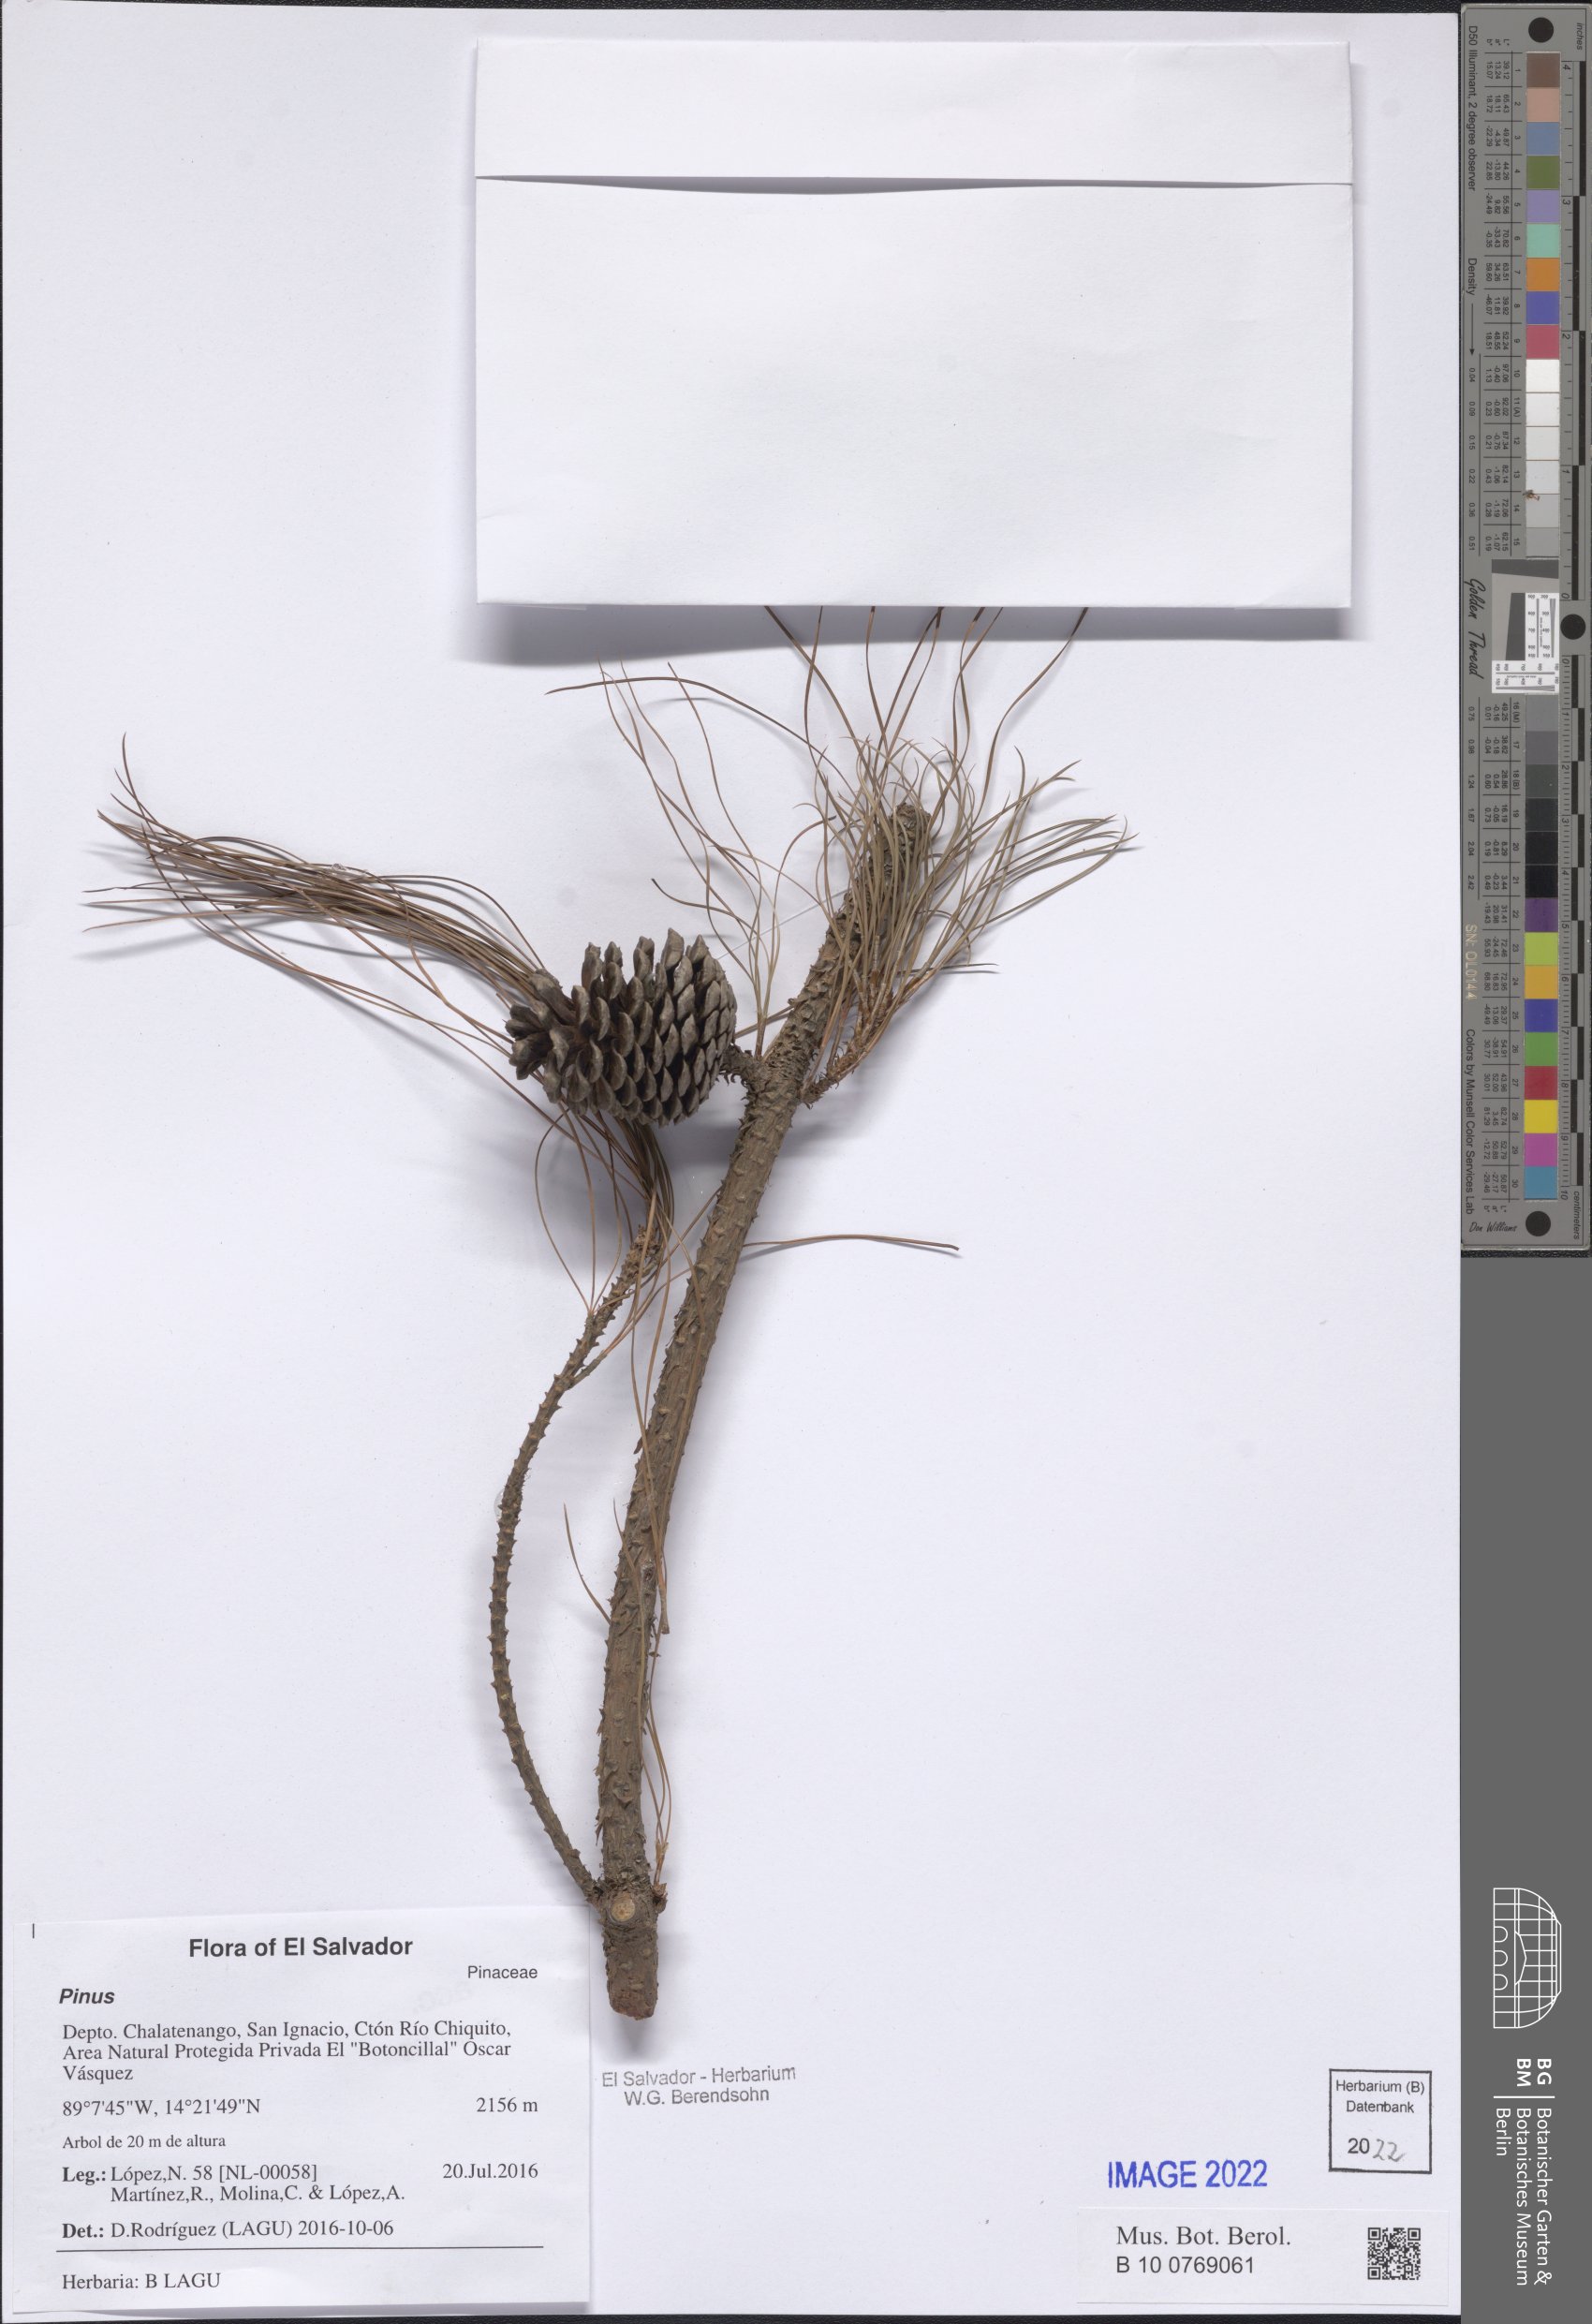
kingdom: Plantae
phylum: Tracheophyta
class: Pinopsida
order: Pinales
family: Pinaceae
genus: Pinus
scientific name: Pinus
